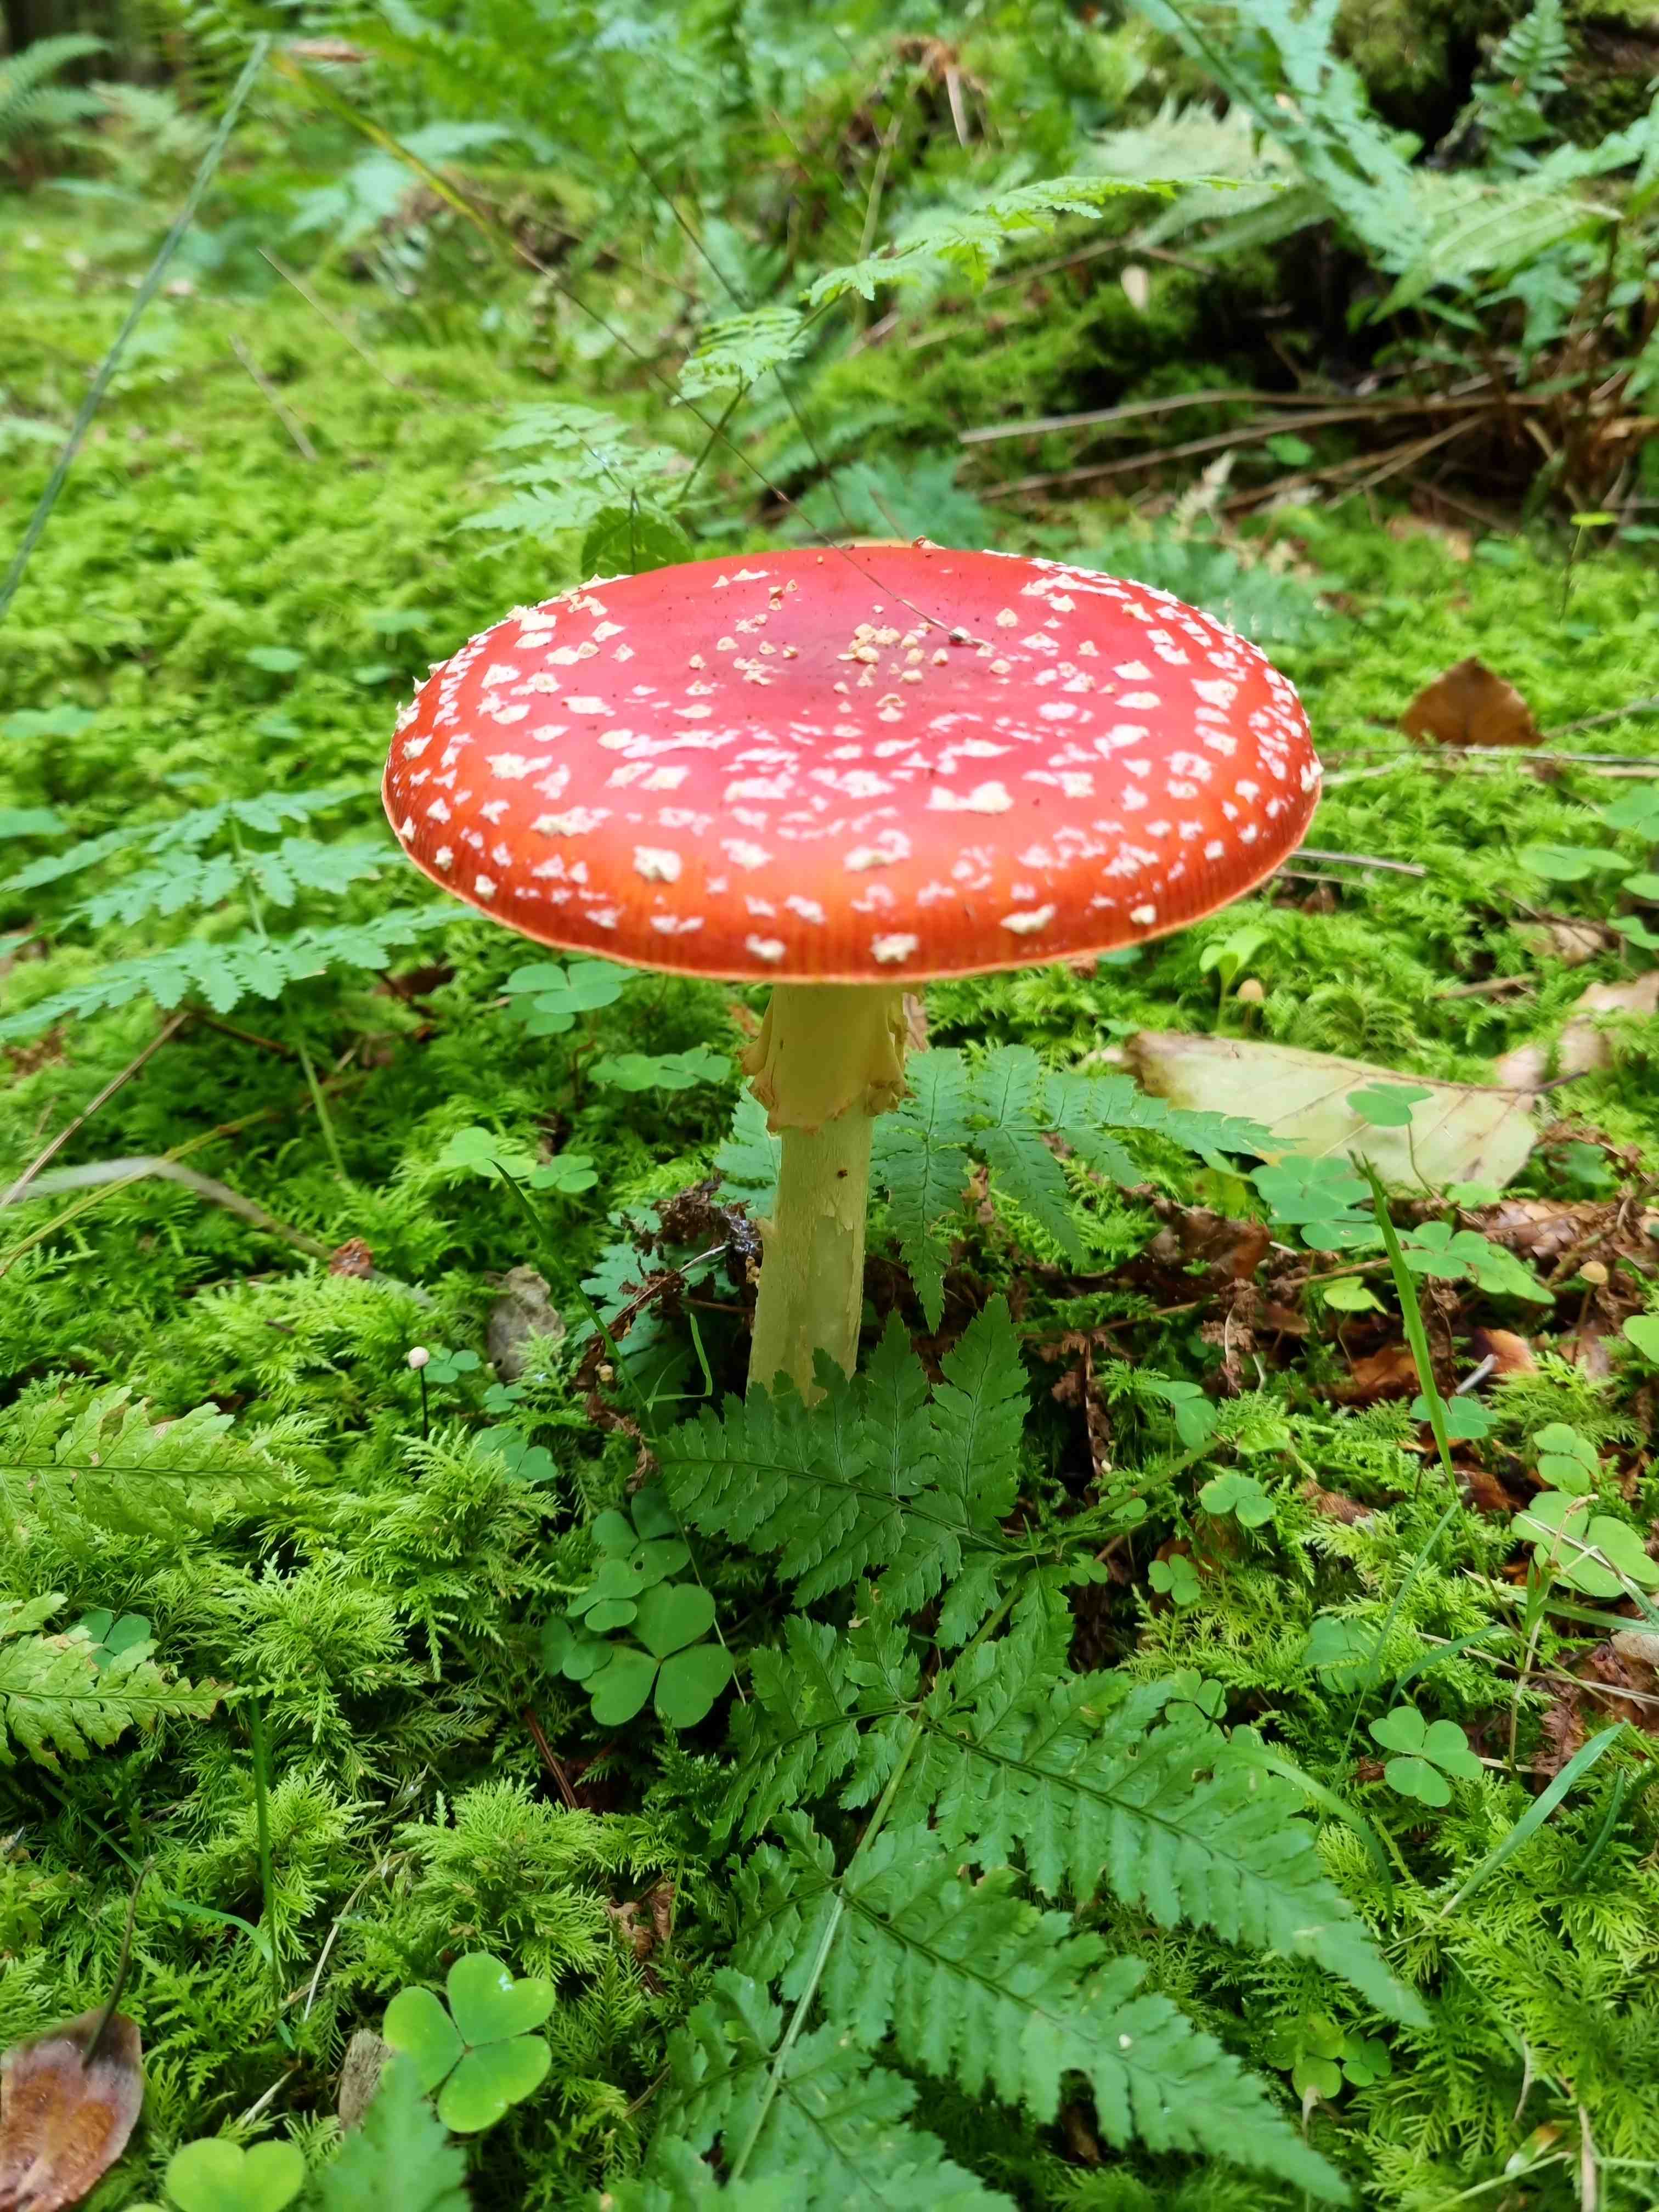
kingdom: Fungi
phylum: Basidiomycota
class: Agaricomycetes
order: Agaricales
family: Amanitaceae
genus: Amanita
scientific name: Amanita muscaria
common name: rød fluesvamp
